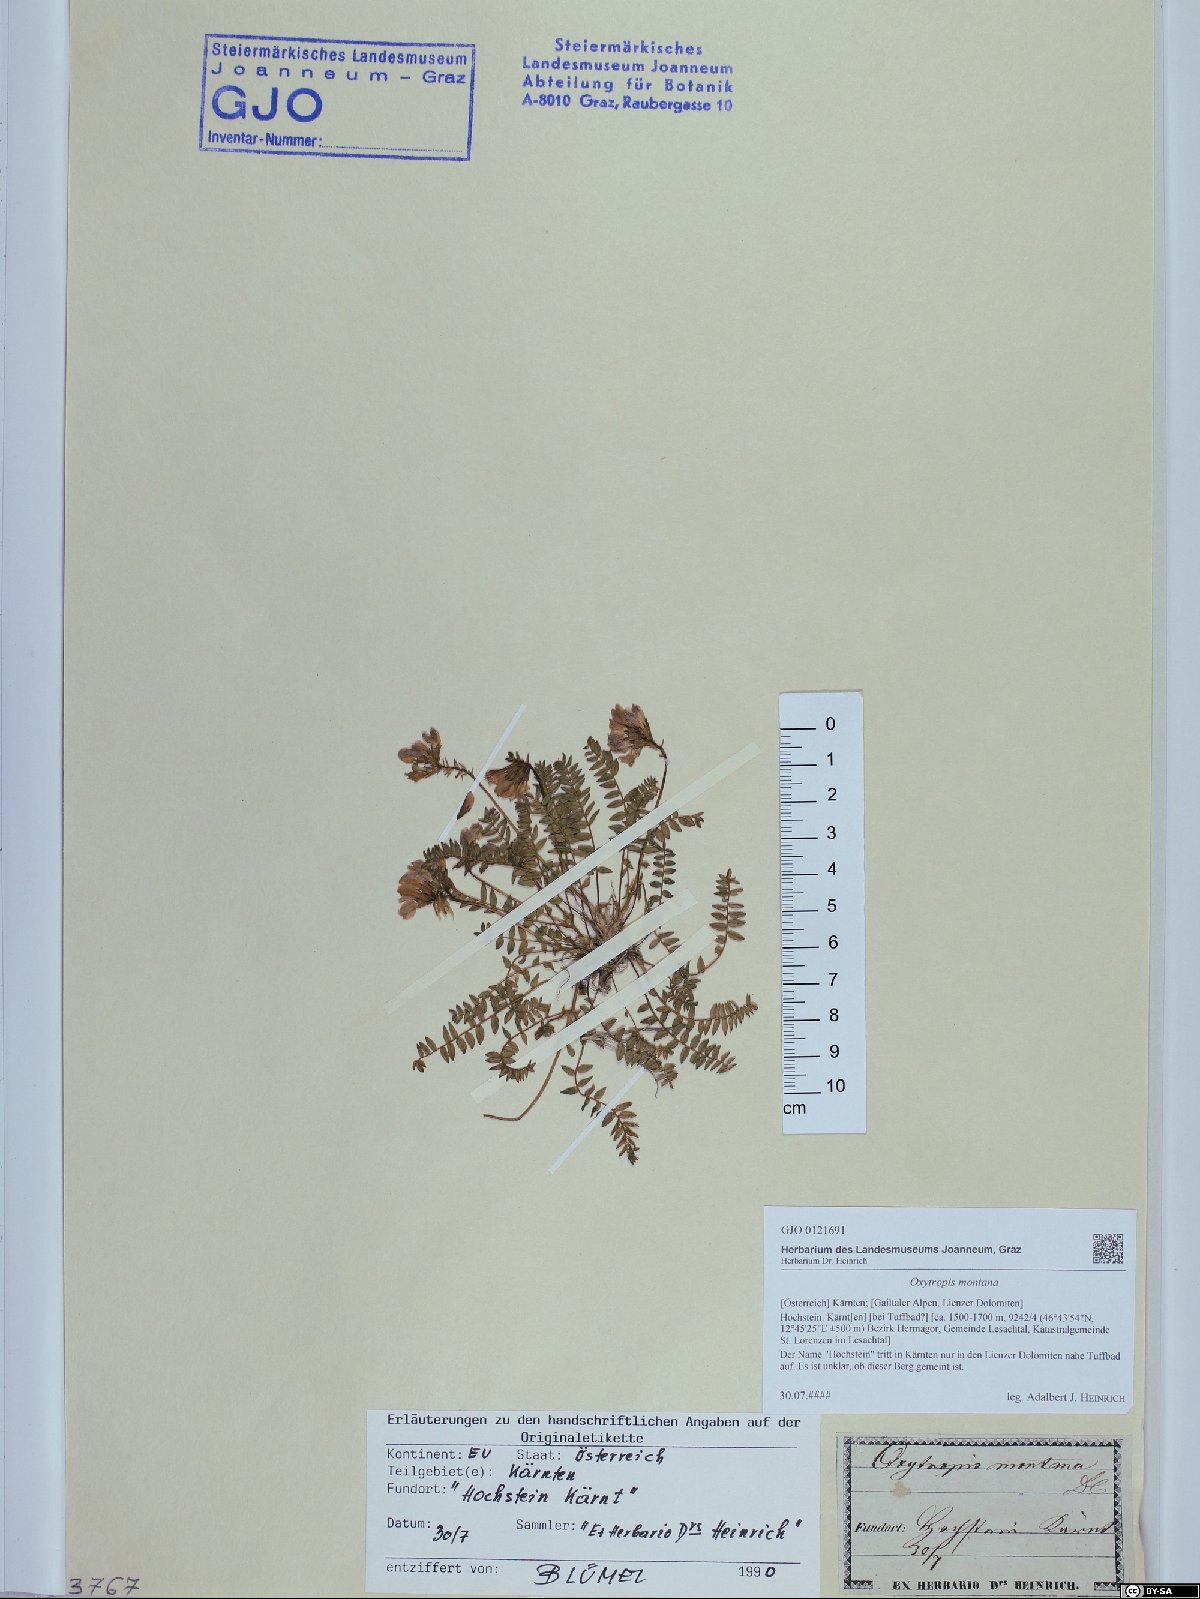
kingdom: Plantae
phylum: Tracheophyta
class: Magnoliopsida
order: Fabales
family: Fabaceae
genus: Oxytropis
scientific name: Oxytropis montana
